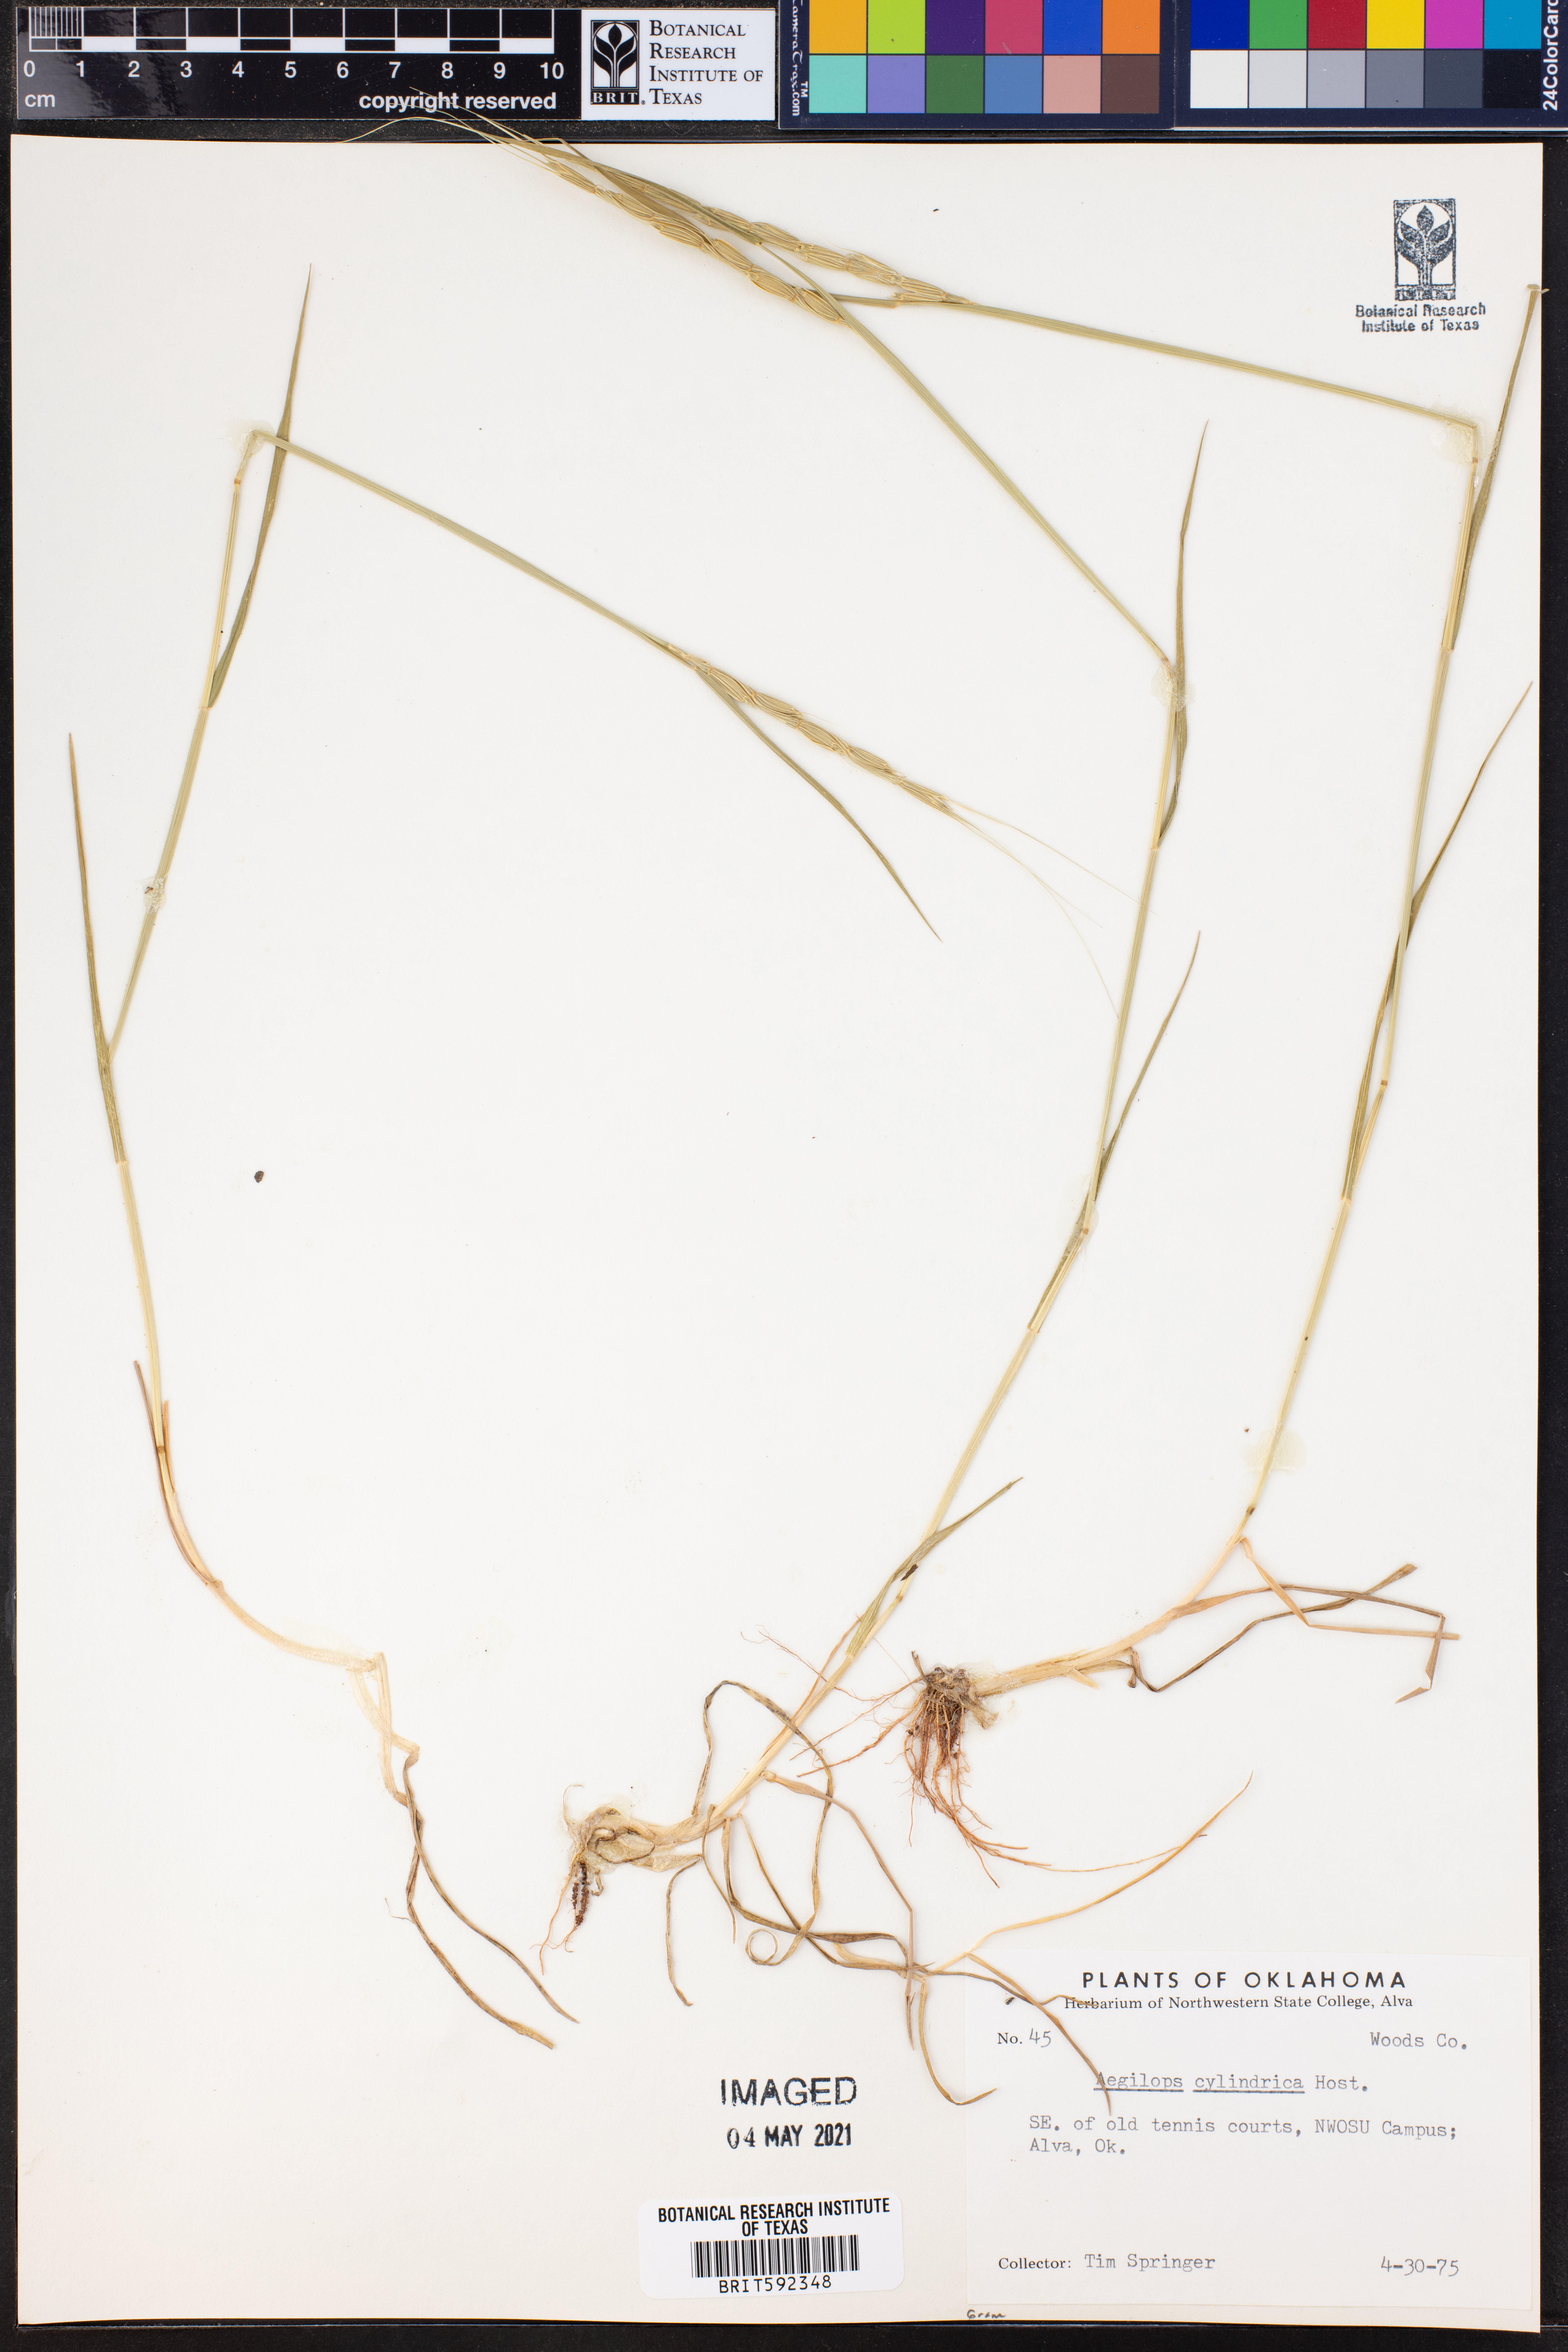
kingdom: Plantae
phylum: Tracheophyta
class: Liliopsida
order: Poales
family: Poaceae
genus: Aegilops
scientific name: Aegilops cylindrica
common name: Jointed goatgrass
